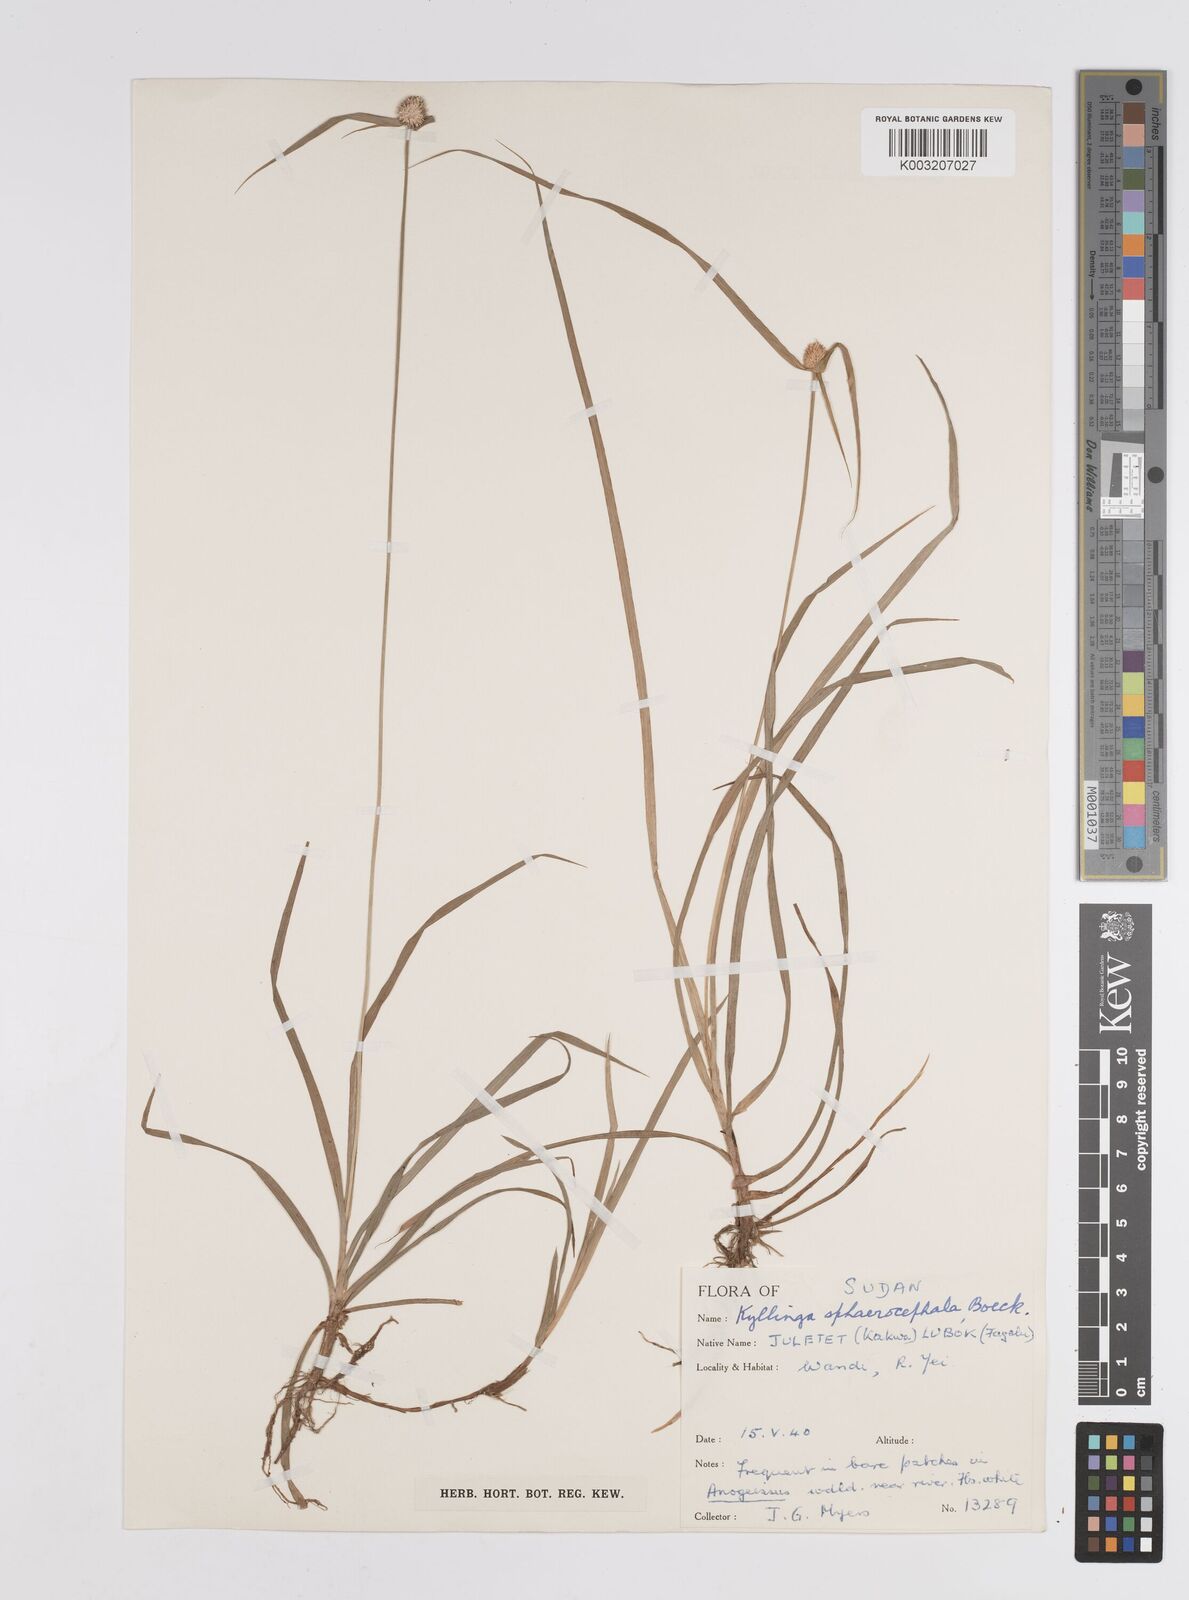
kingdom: Plantae
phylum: Tracheophyta
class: Liliopsida
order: Poales
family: Cyperaceae
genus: Cyperus
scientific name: Cyperus sphaerocephalus
